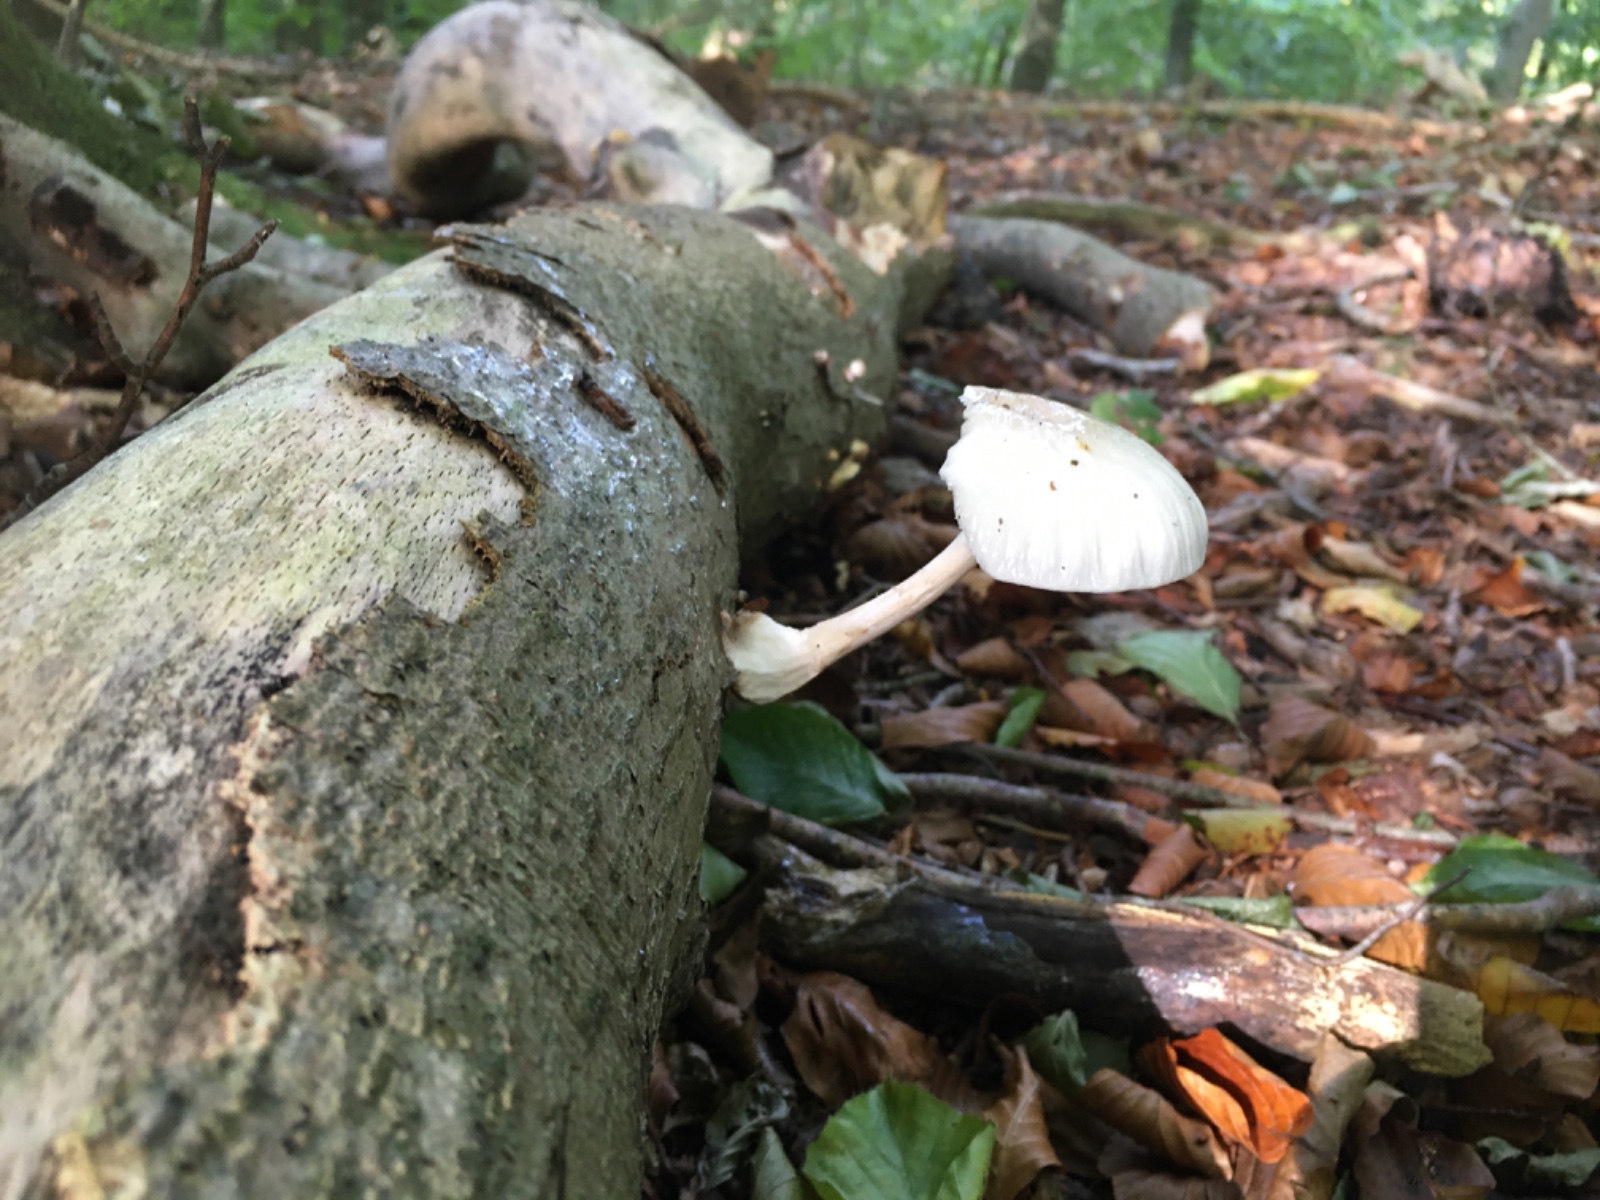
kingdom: Fungi
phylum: Basidiomycota
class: Agaricomycetes
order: Agaricales
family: Physalacriaceae
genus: Mucidula
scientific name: Mucidula mucida
